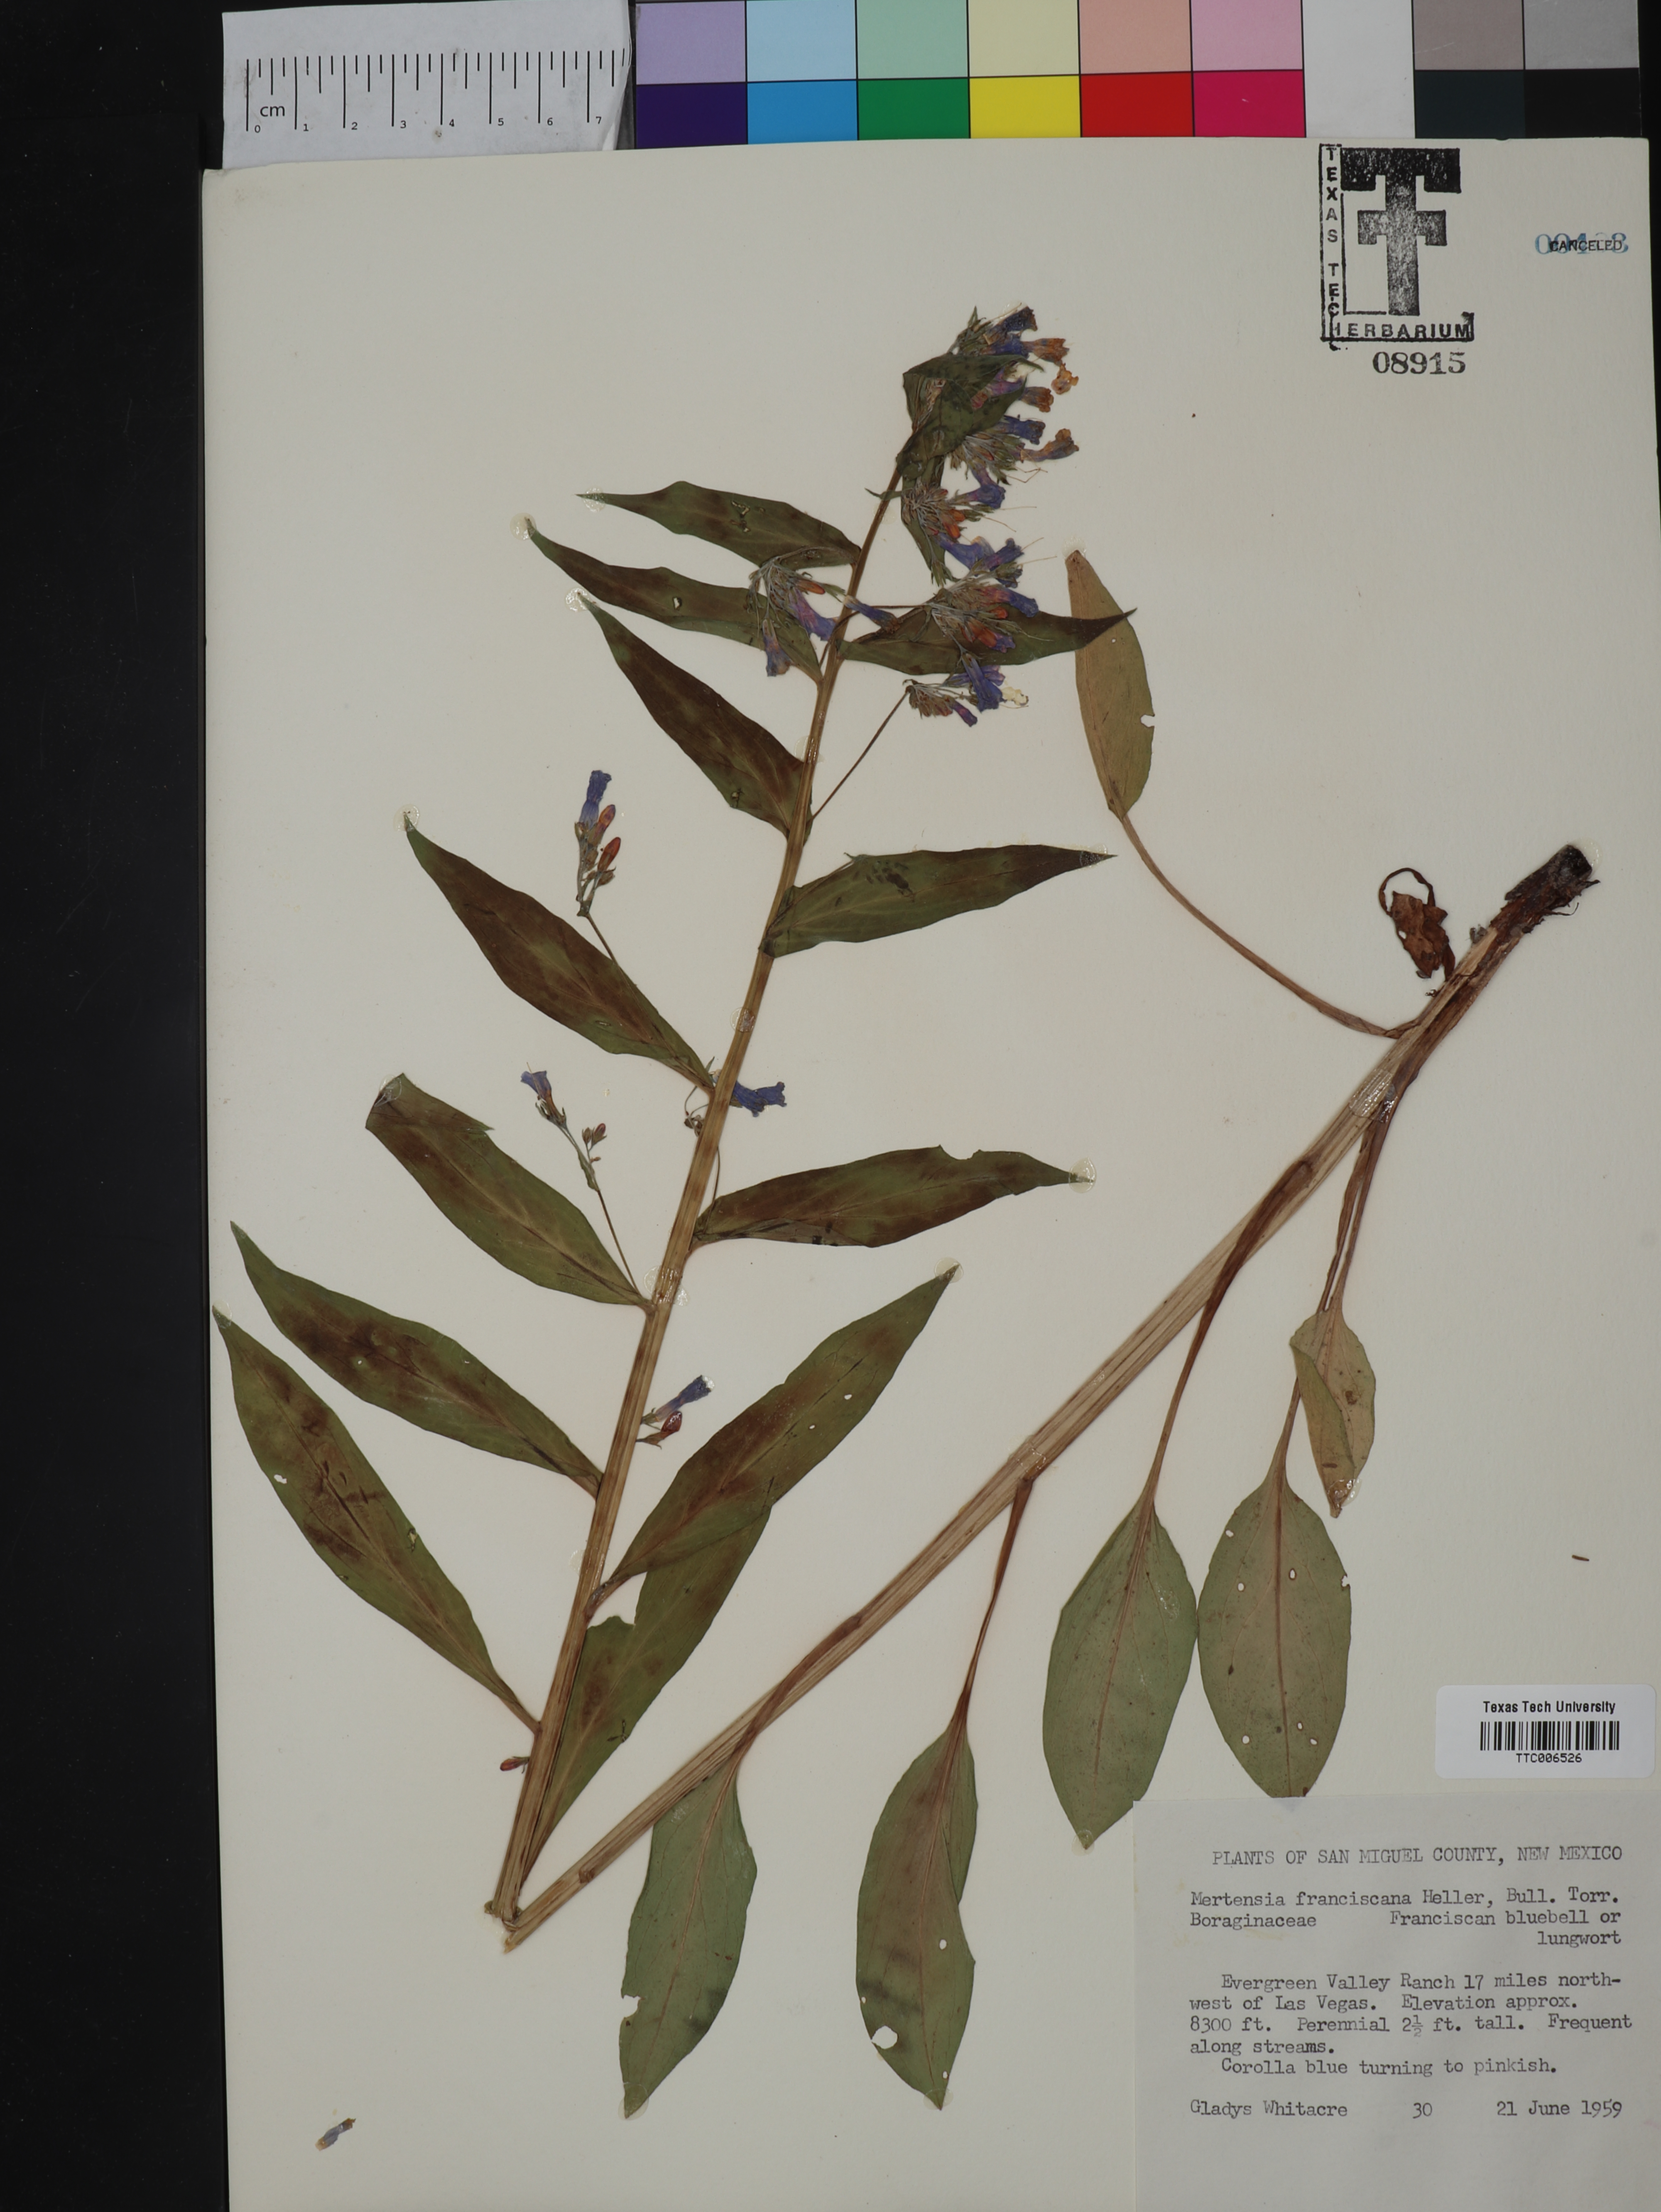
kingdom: Plantae
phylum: Tracheophyta
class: Magnoliopsida
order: Boraginales
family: Boraginaceae
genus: Mertensia
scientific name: Mertensia franciscana
